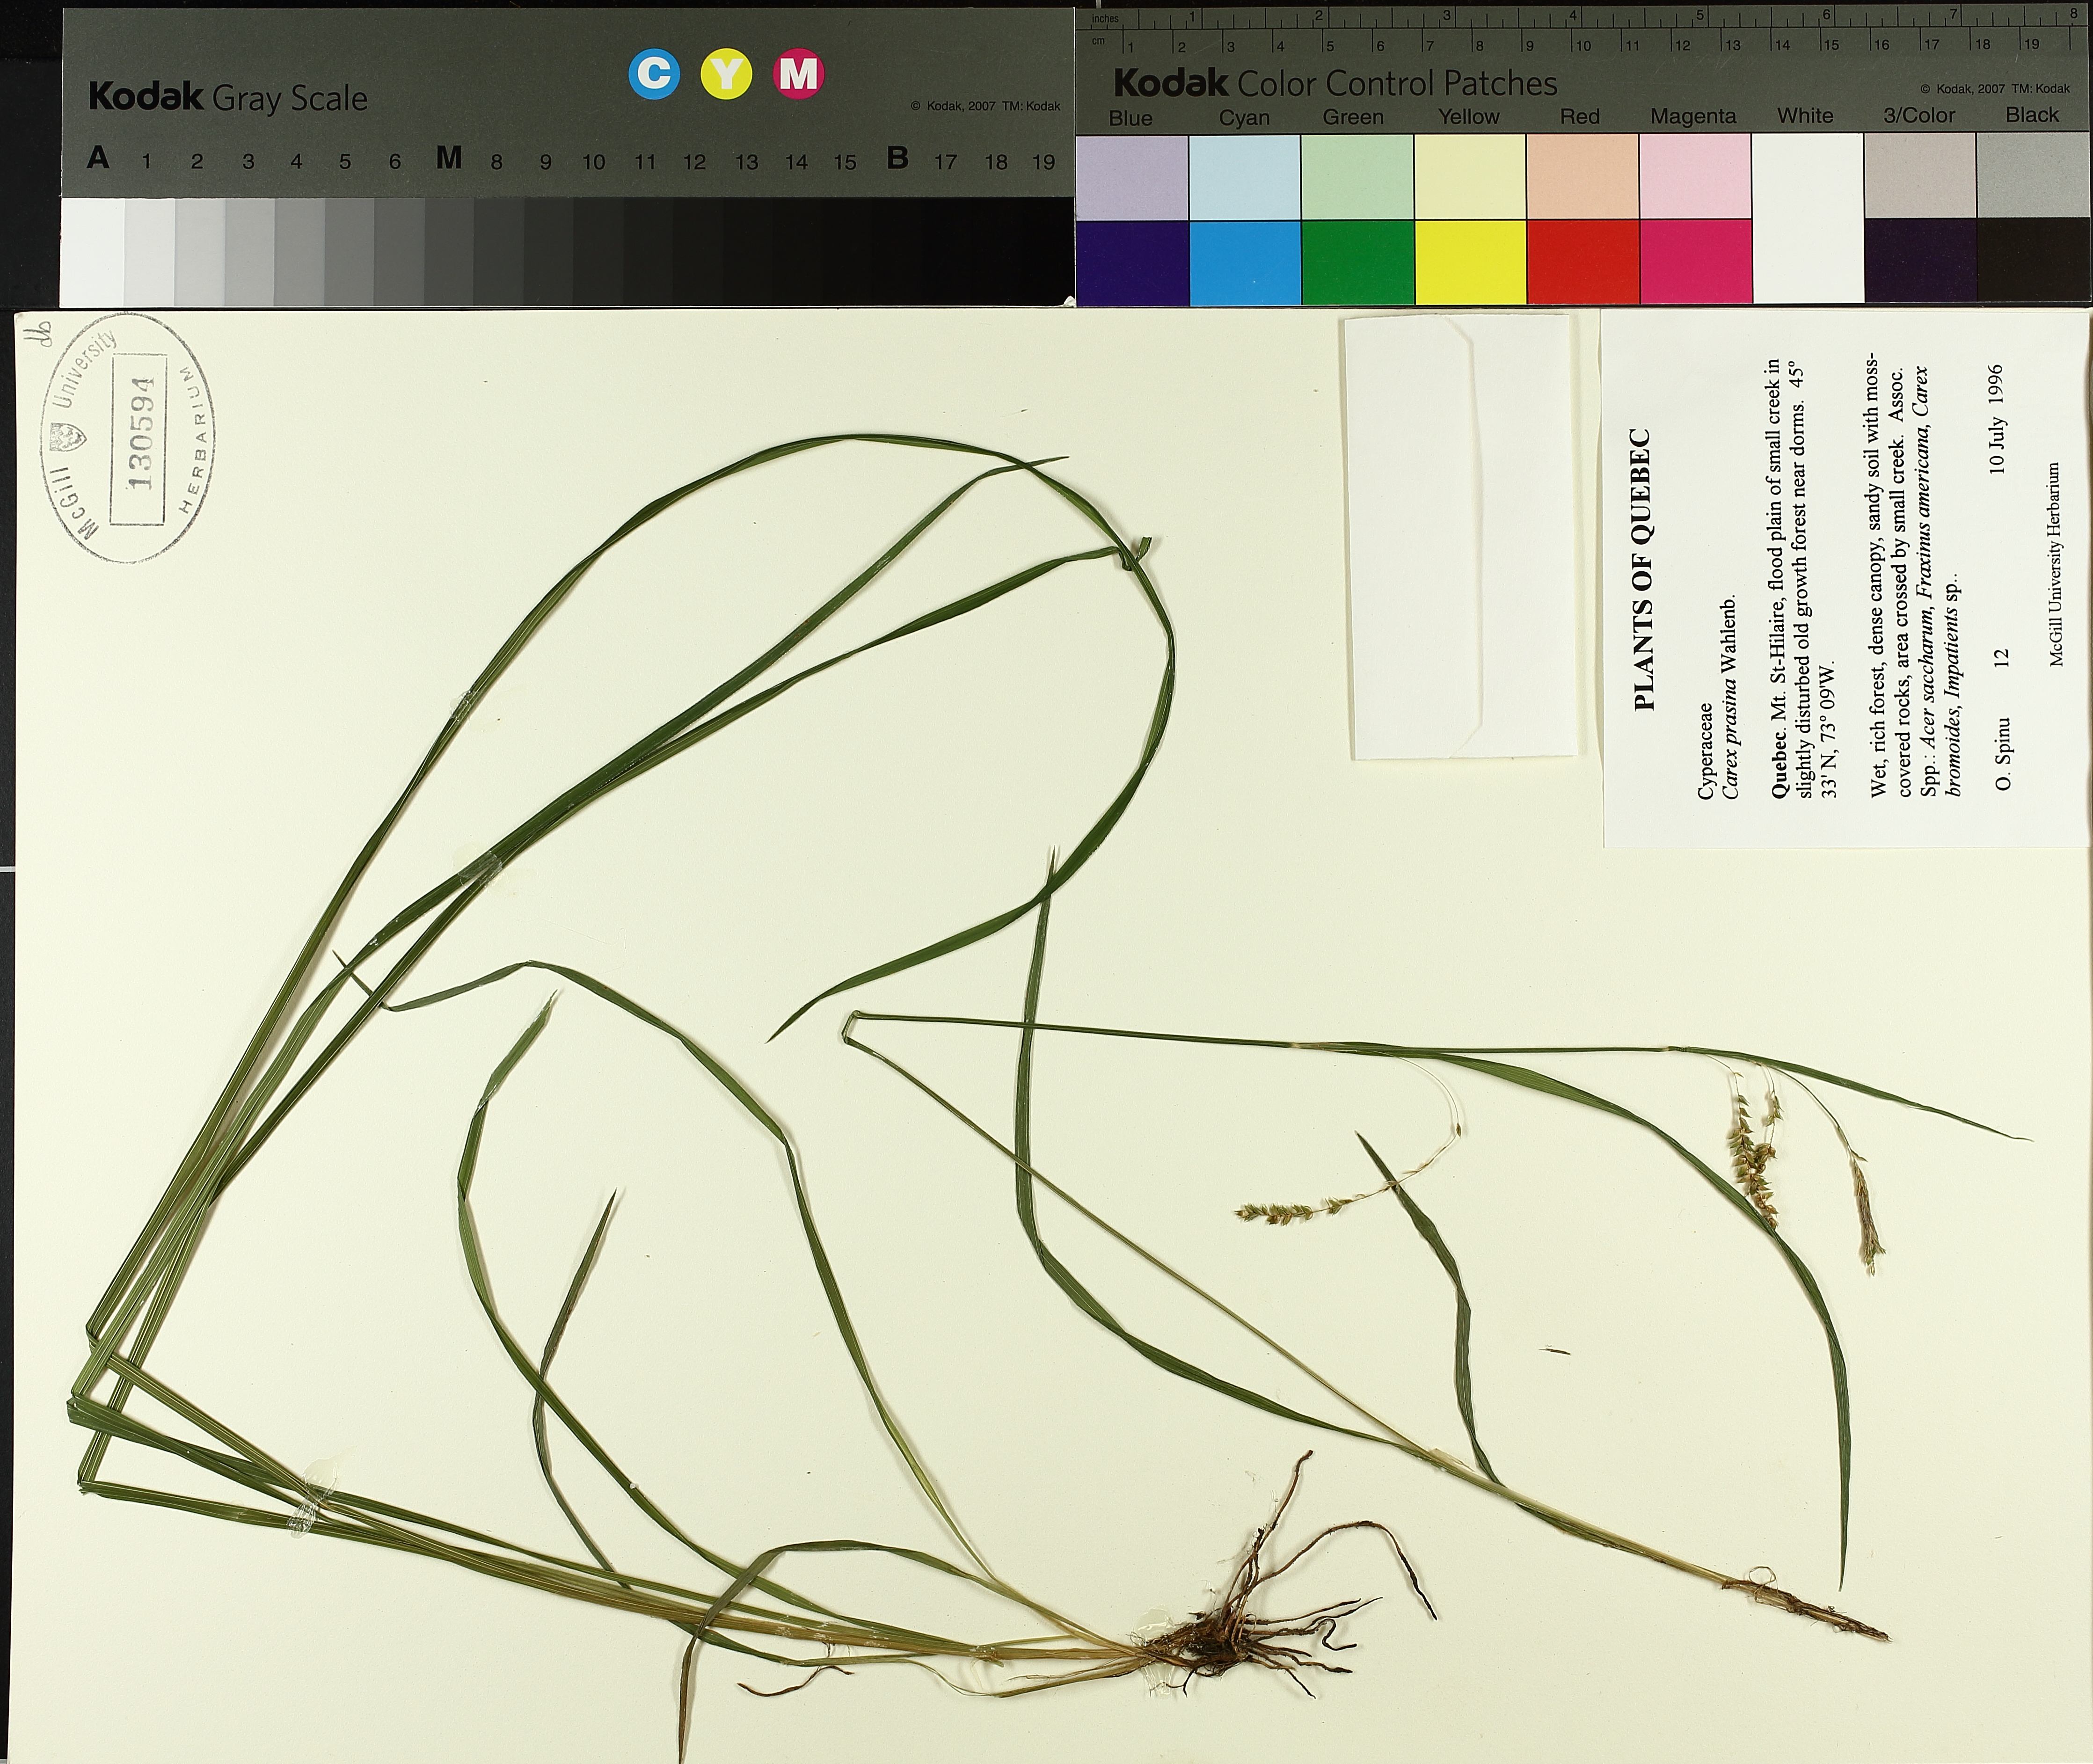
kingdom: Plantae
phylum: Tracheophyta
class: Liliopsida
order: Poales
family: Cyperaceae
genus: Carex
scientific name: Carex prasina
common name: Drooping sedge
